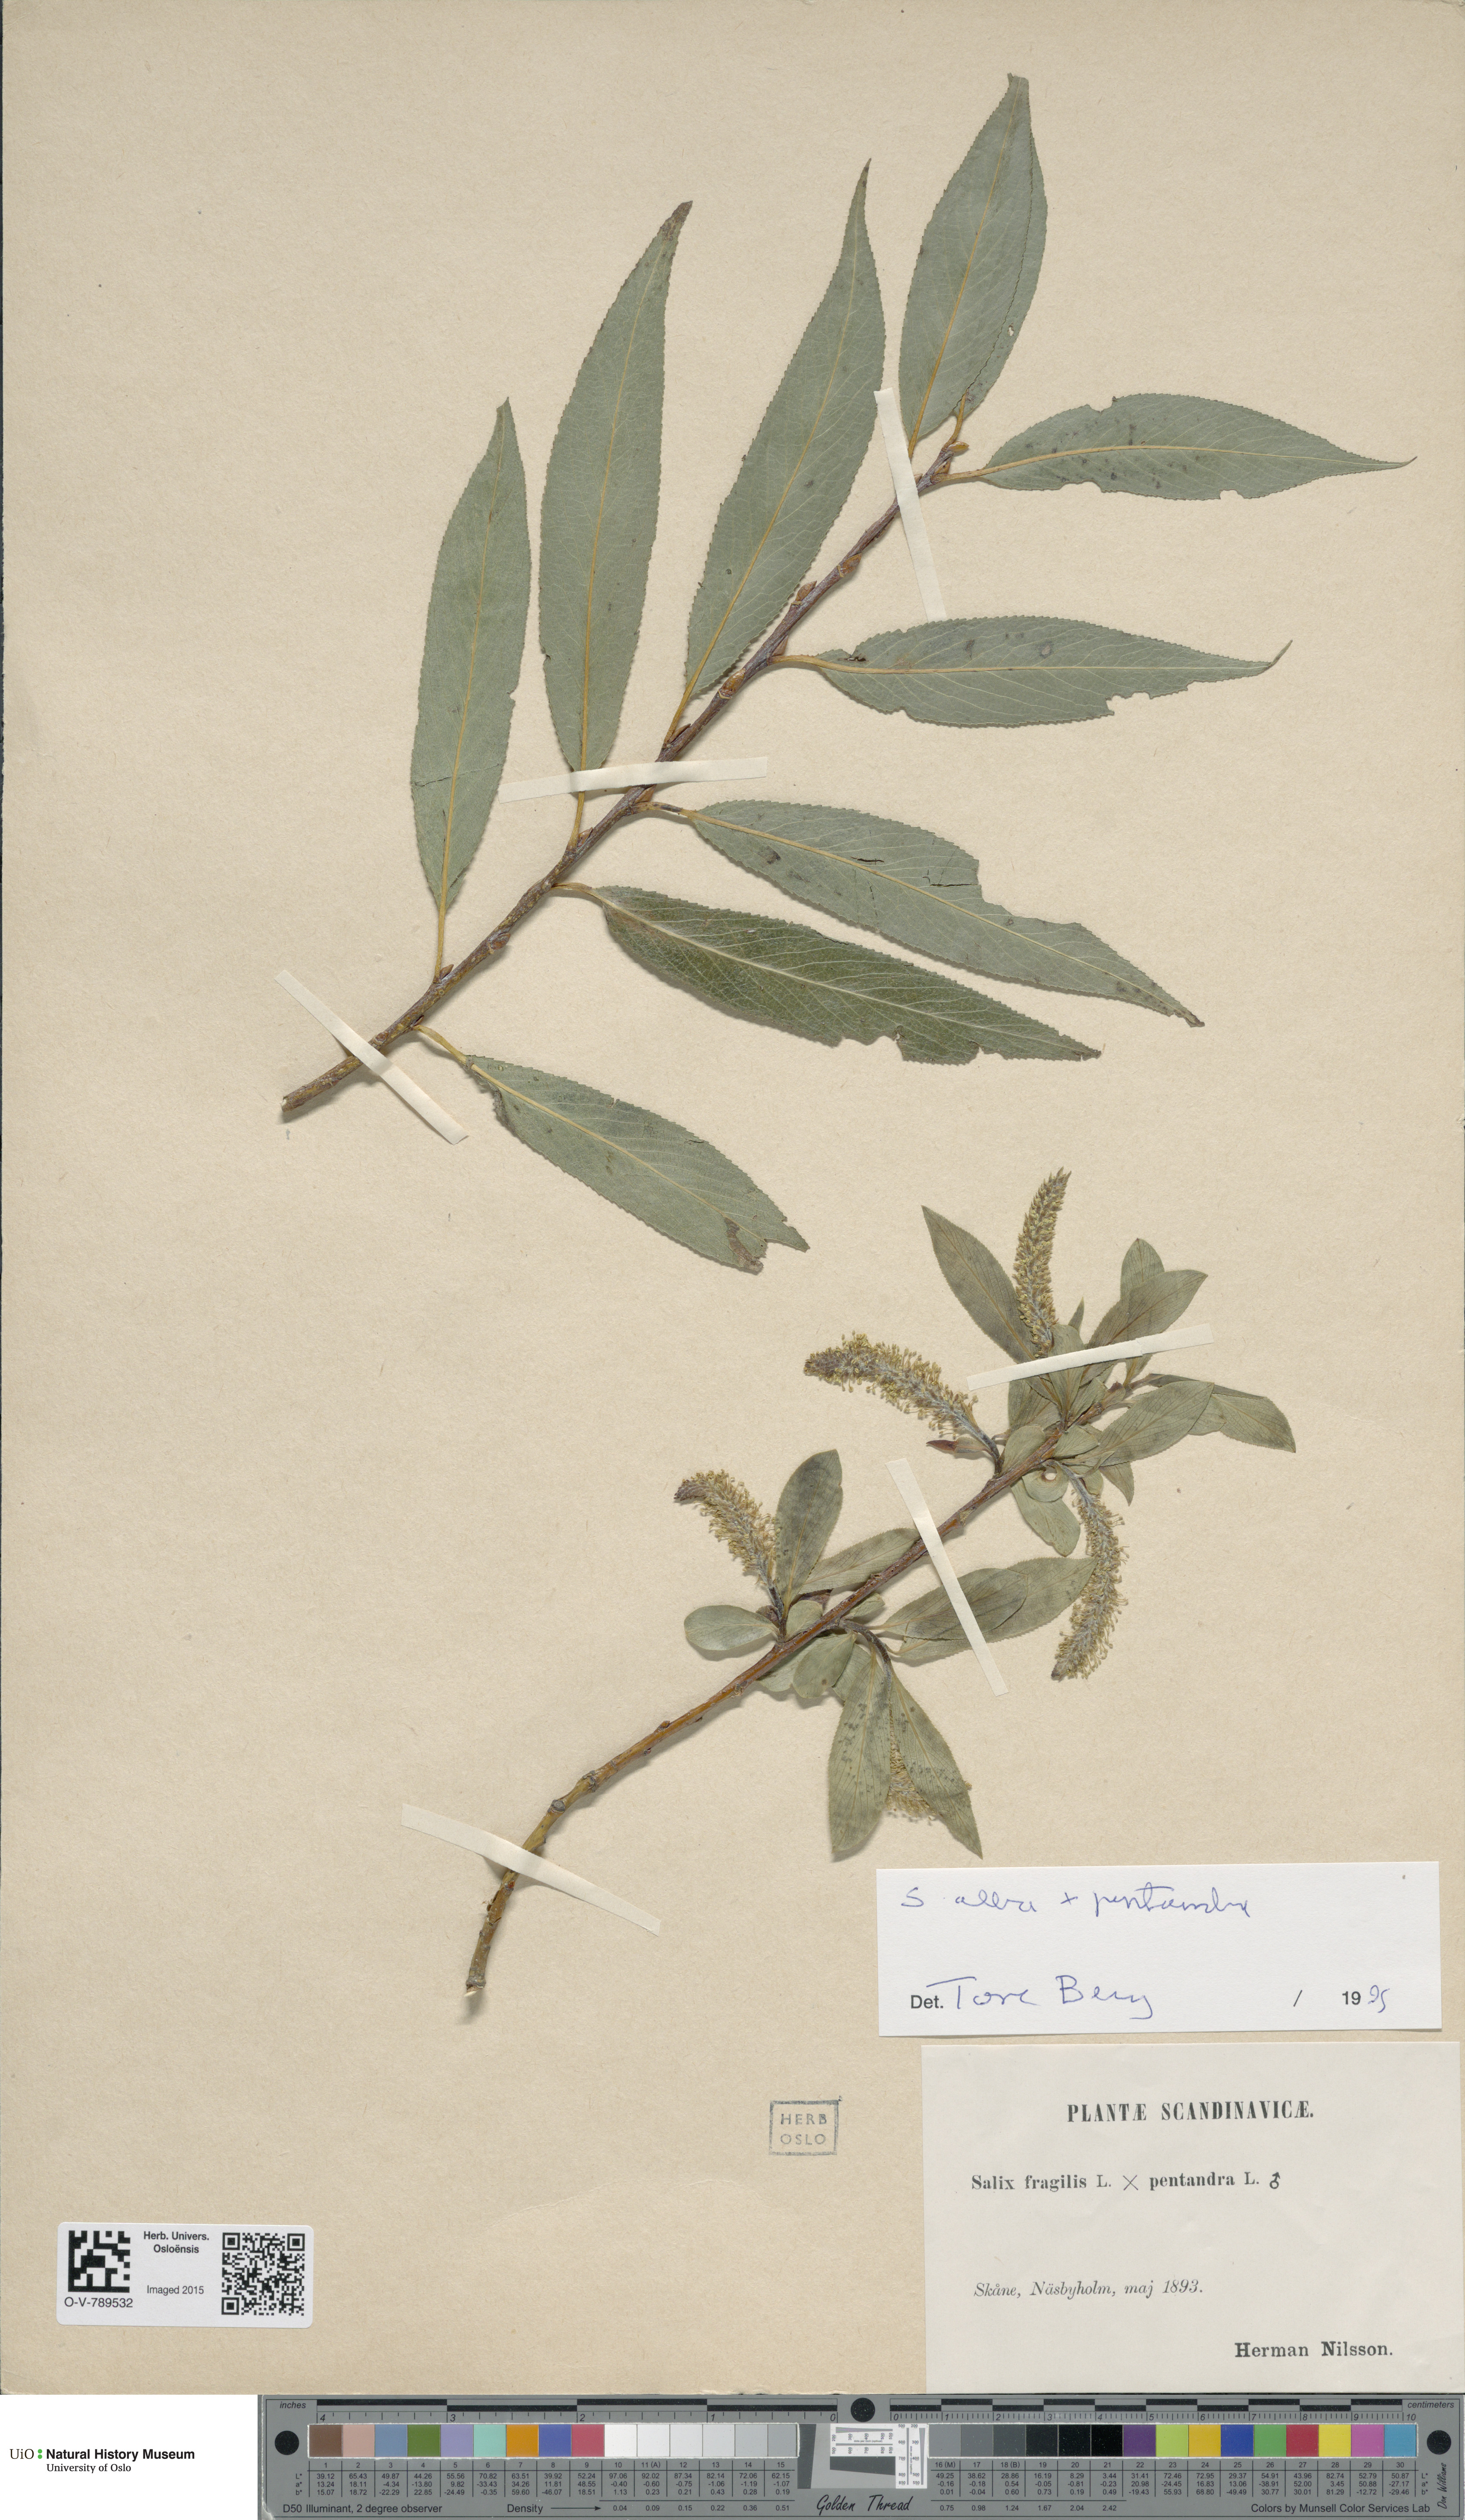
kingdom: Plantae
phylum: Tracheophyta
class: Magnoliopsida
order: Malpighiales
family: Salicaceae
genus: Salix
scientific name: Salix
